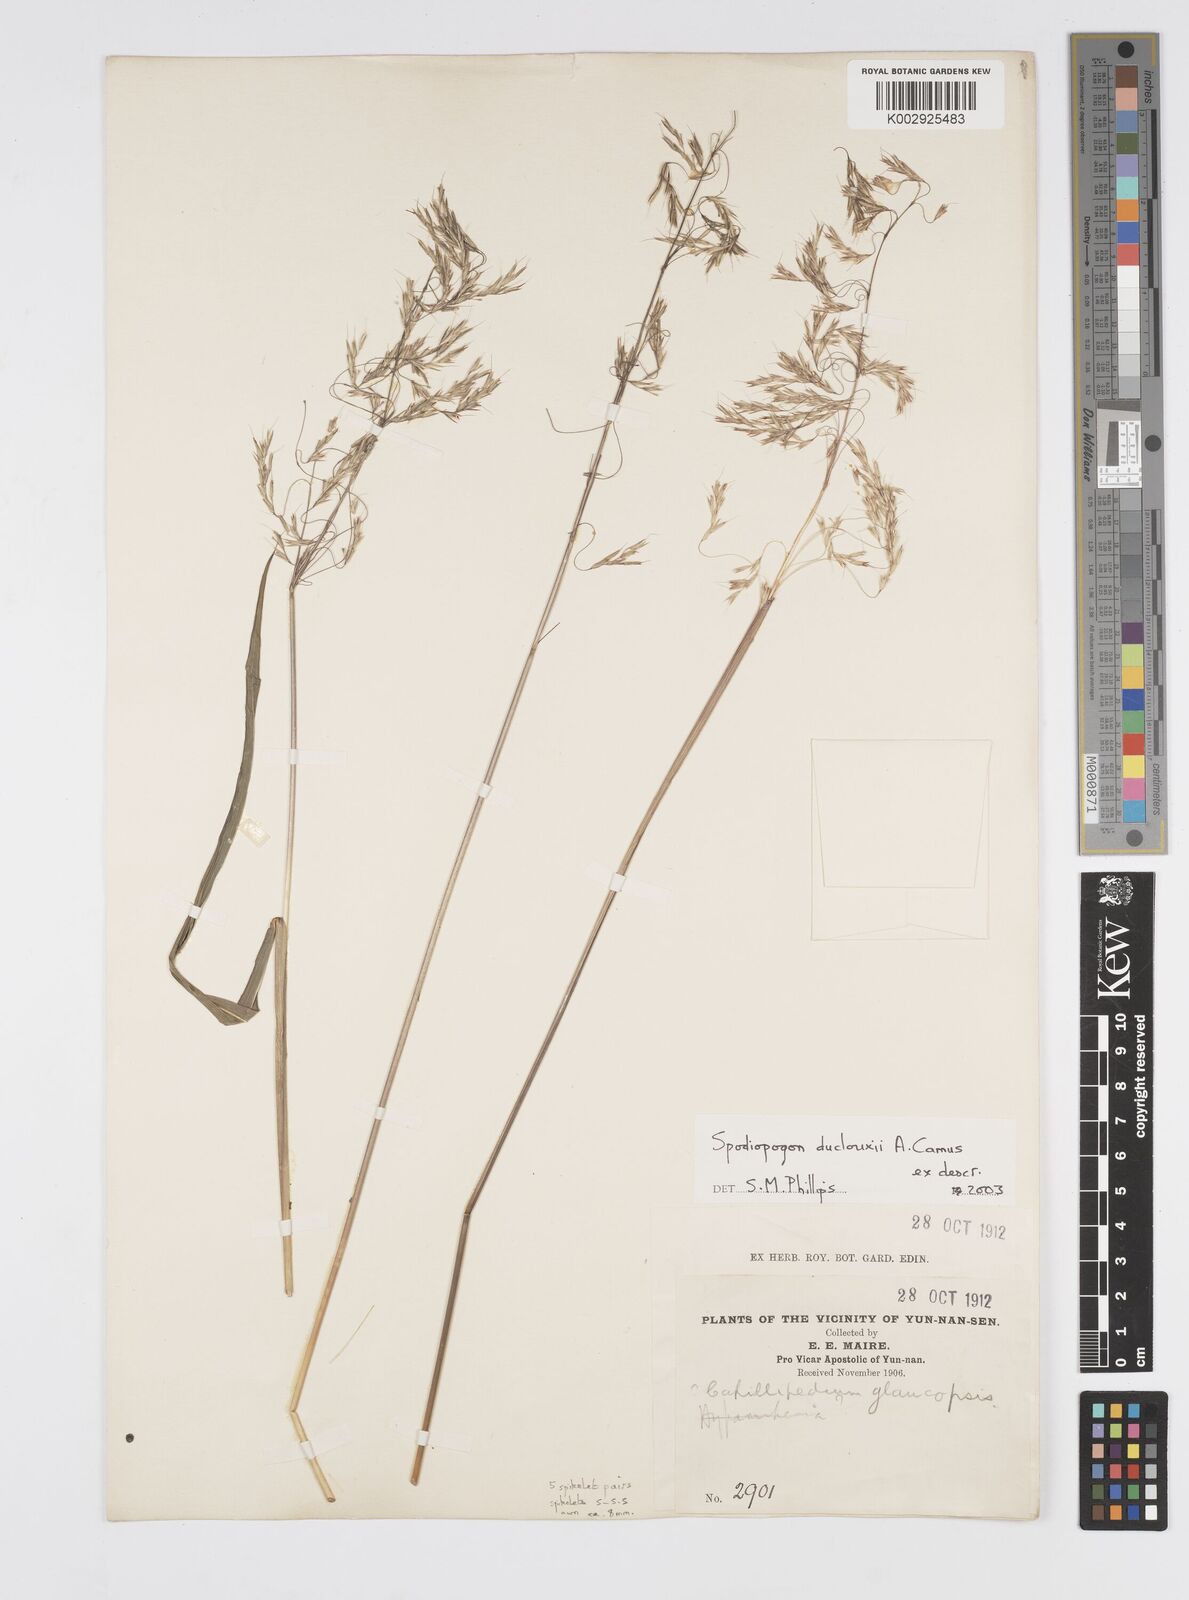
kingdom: Plantae
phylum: Tracheophyta
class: Liliopsida
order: Poales
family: Poaceae
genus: Spodiopogon
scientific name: Spodiopogon duclouxii
